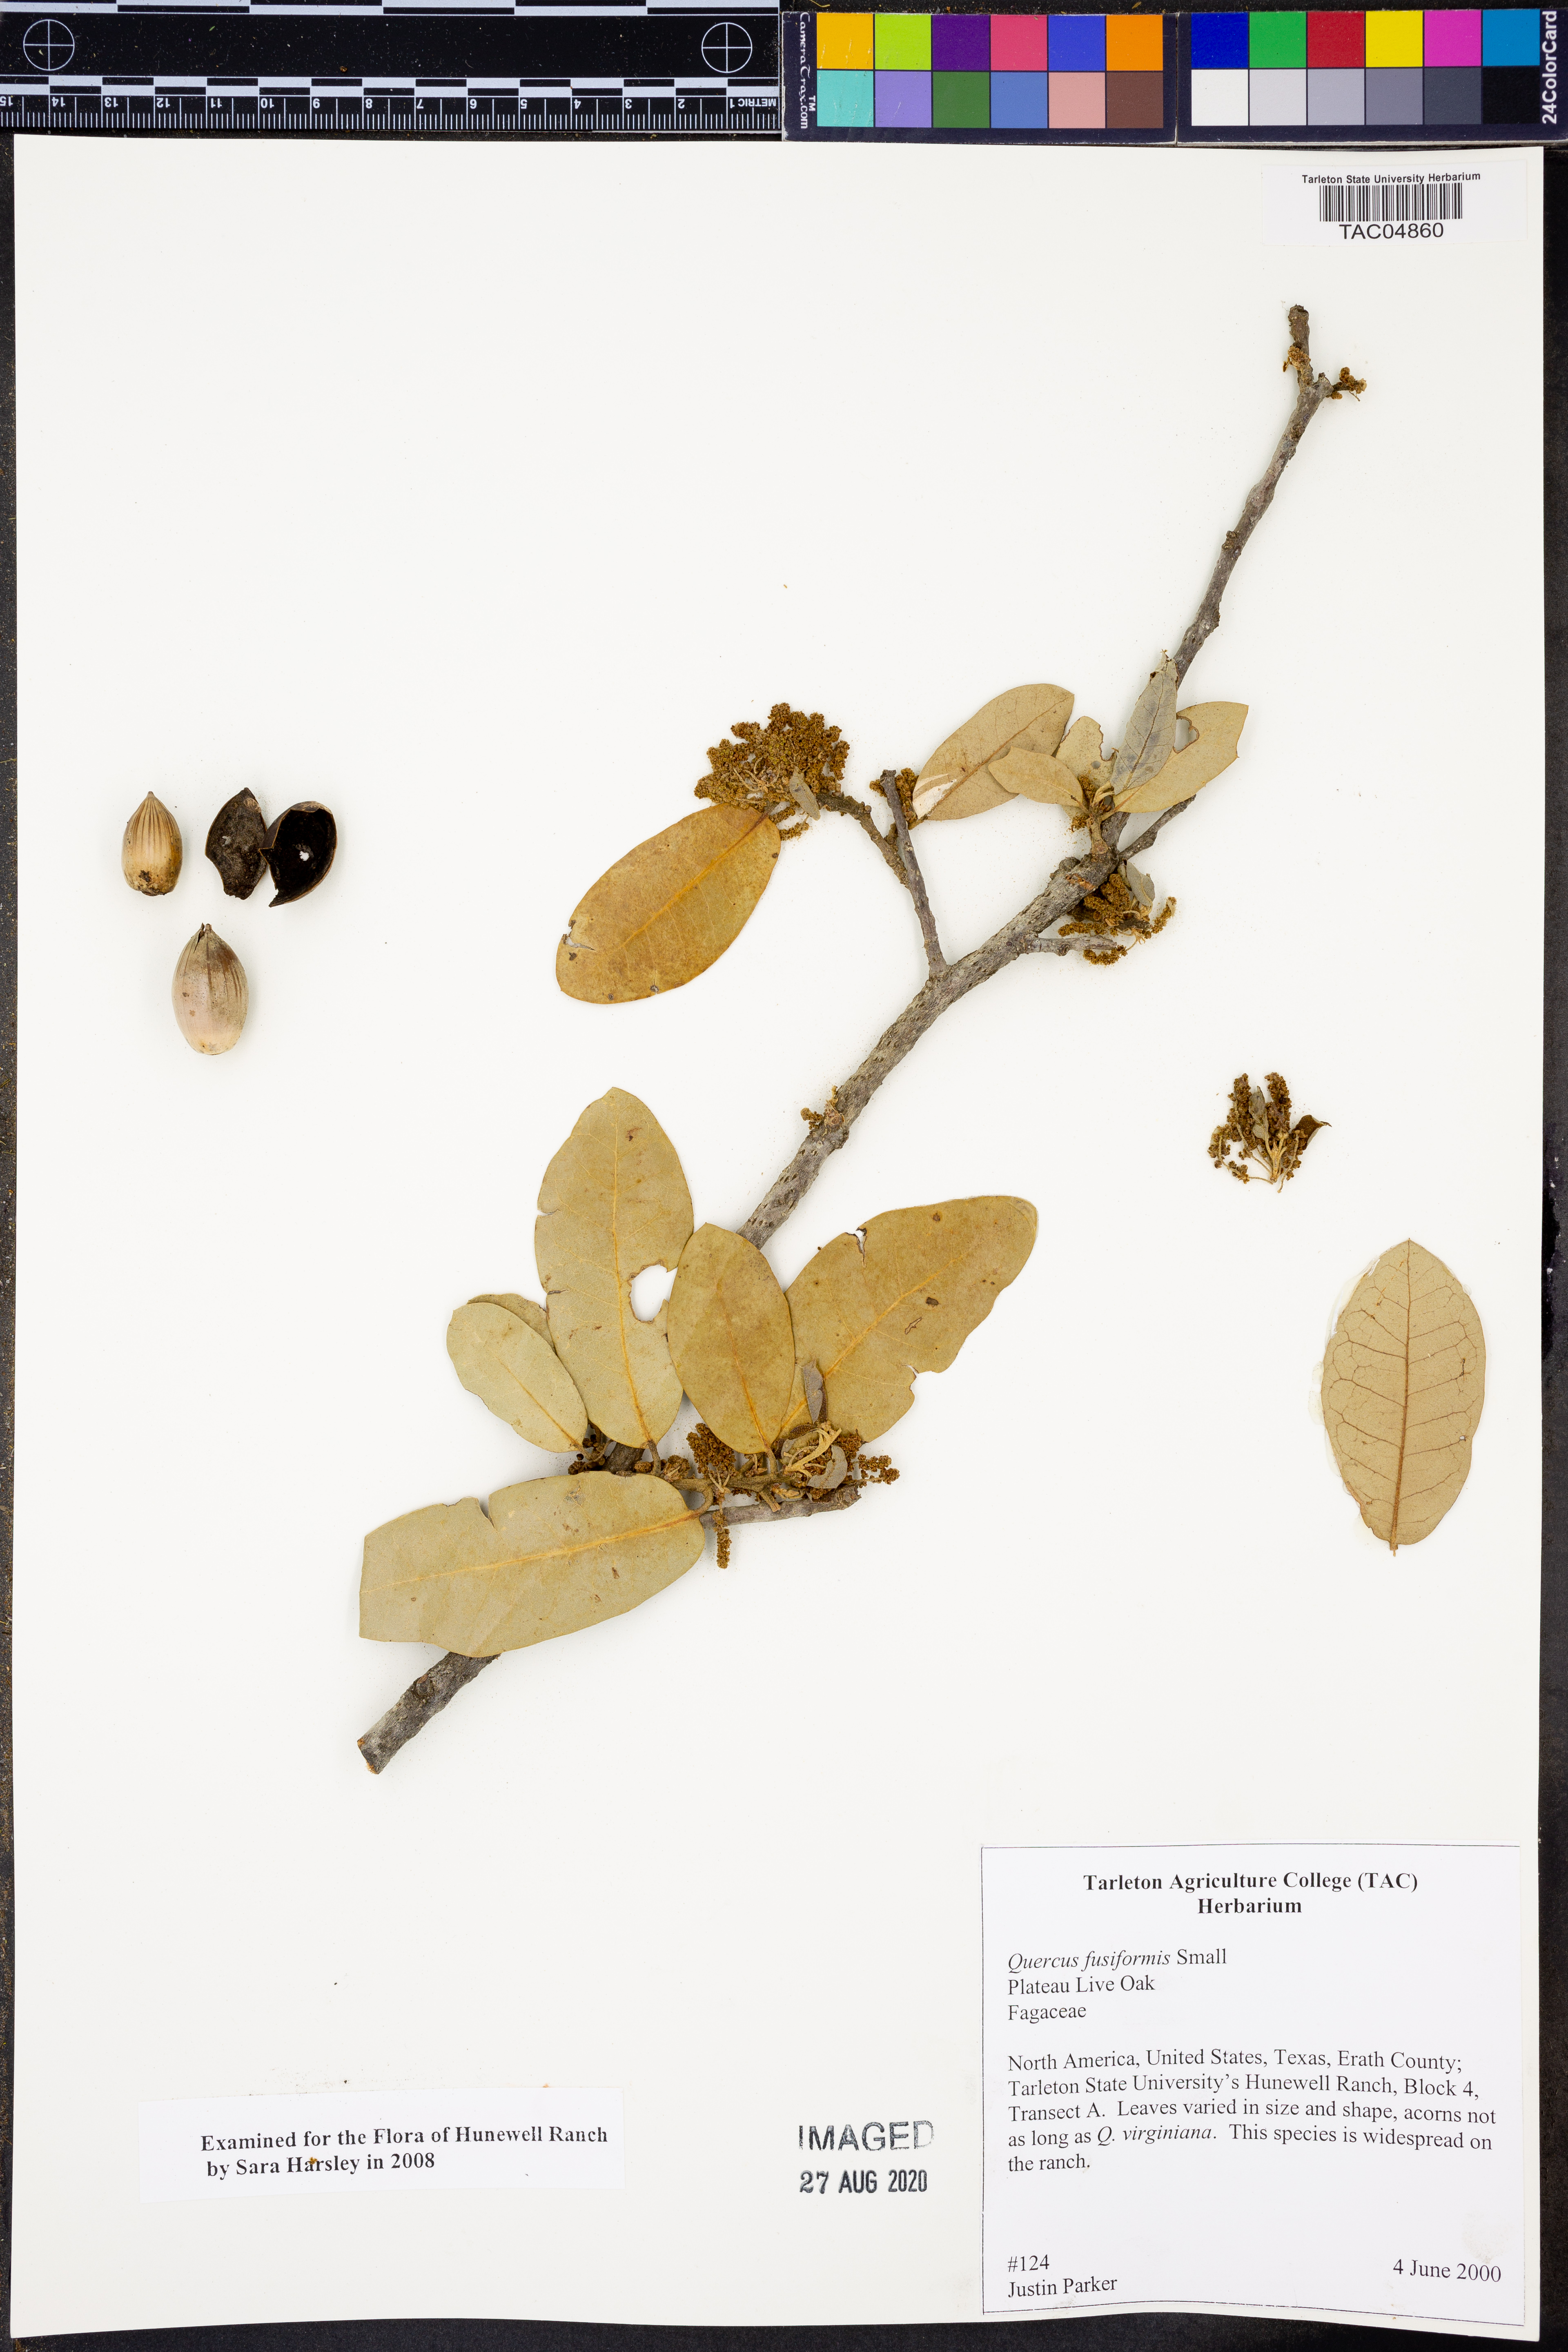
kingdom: Plantae
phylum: Tracheophyta
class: Magnoliopsida
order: Fagales
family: Fagaceae
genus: Quercus
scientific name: Quercus fusiformis
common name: Texas live oak
